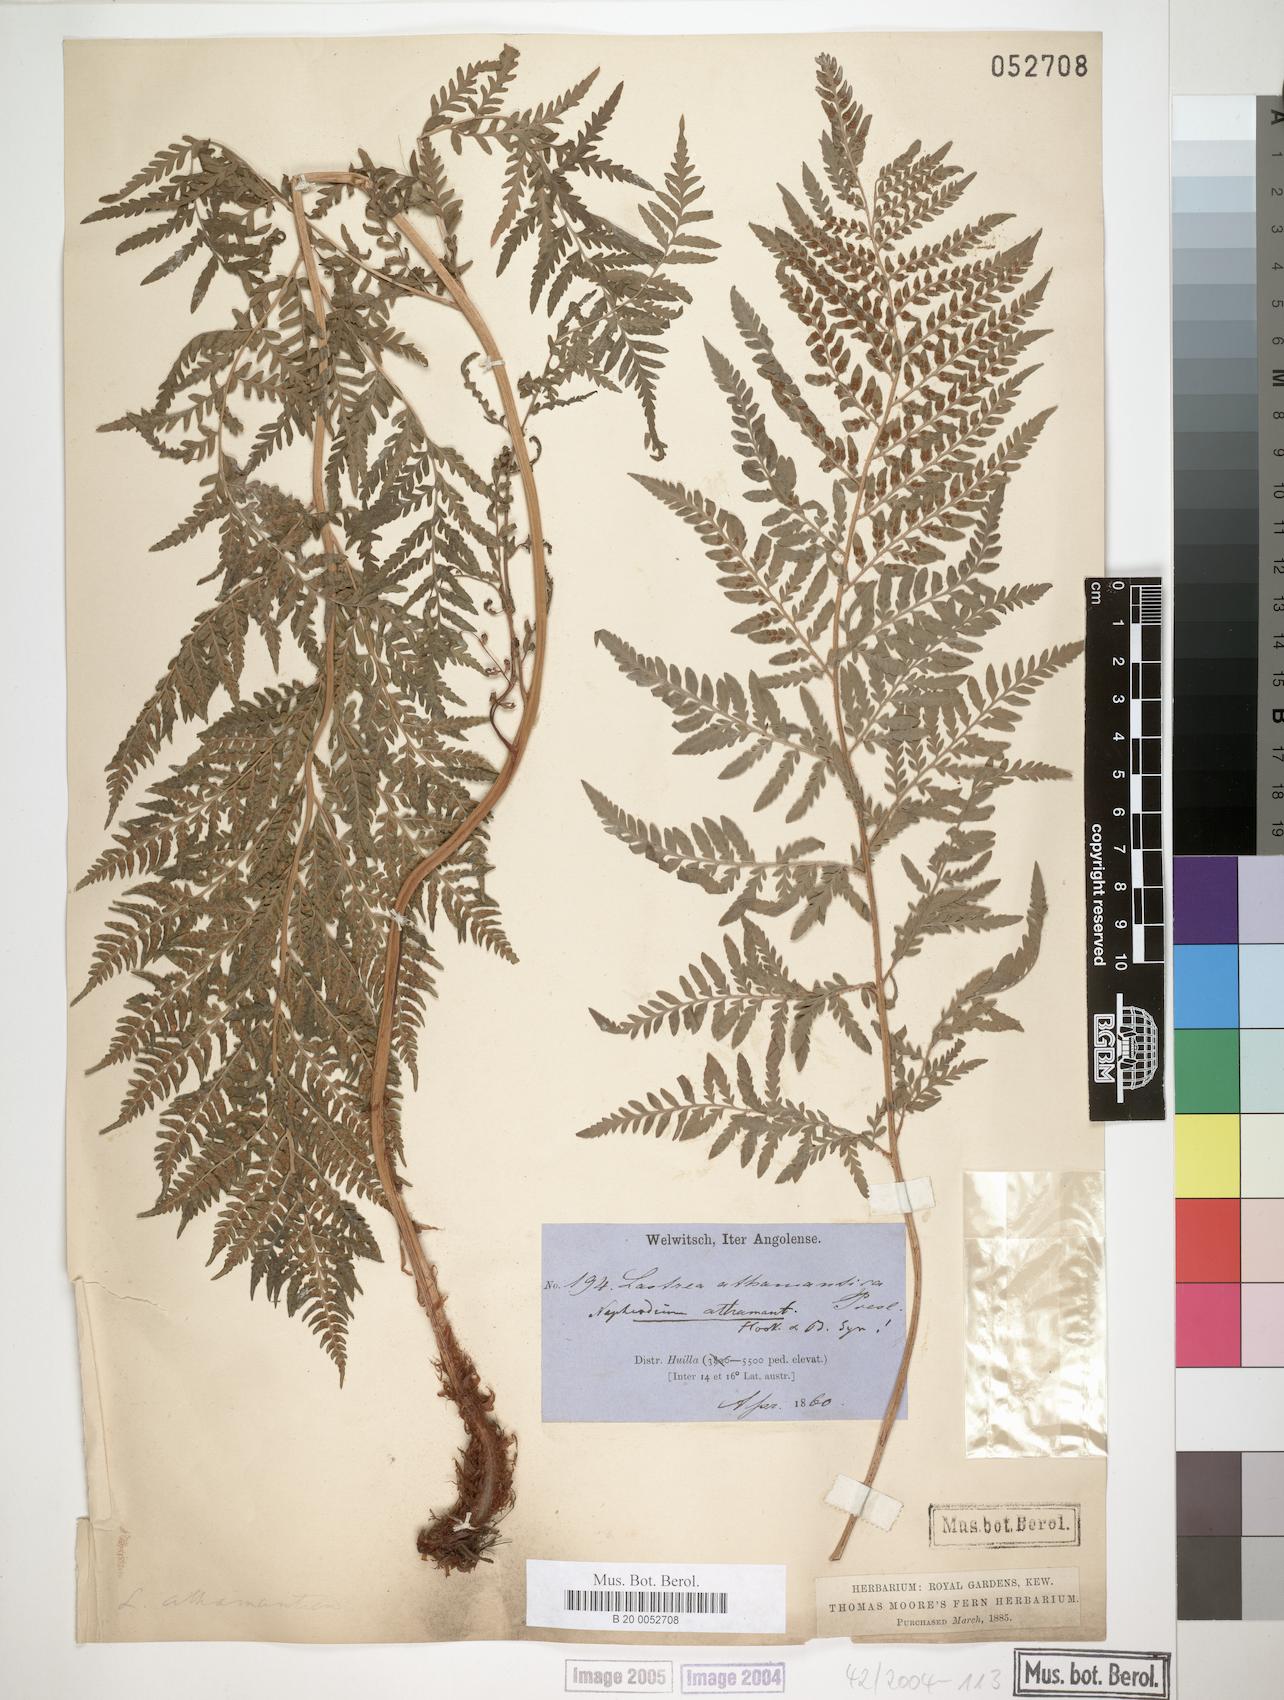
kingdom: Plantae
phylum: Tracheophyta
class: Polypodiopsida
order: Polypodiales
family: Dryopteridaceae
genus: Dryopteris
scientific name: Dryopteris athamantica
